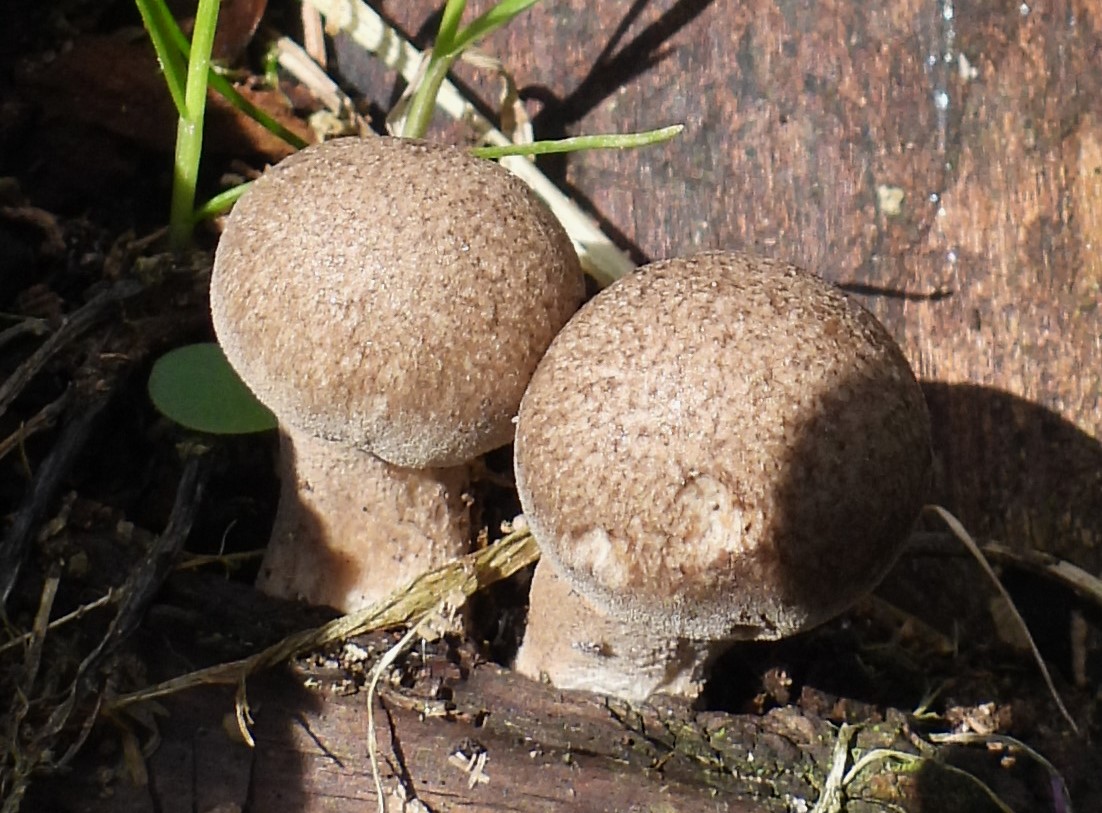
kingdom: Fungi
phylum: Basidiomycota
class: Agaricomycetes
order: Polyporales
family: Polyporaceae
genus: Lentinus
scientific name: Lentinus substrictus
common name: forårs-stilkporesvamp
